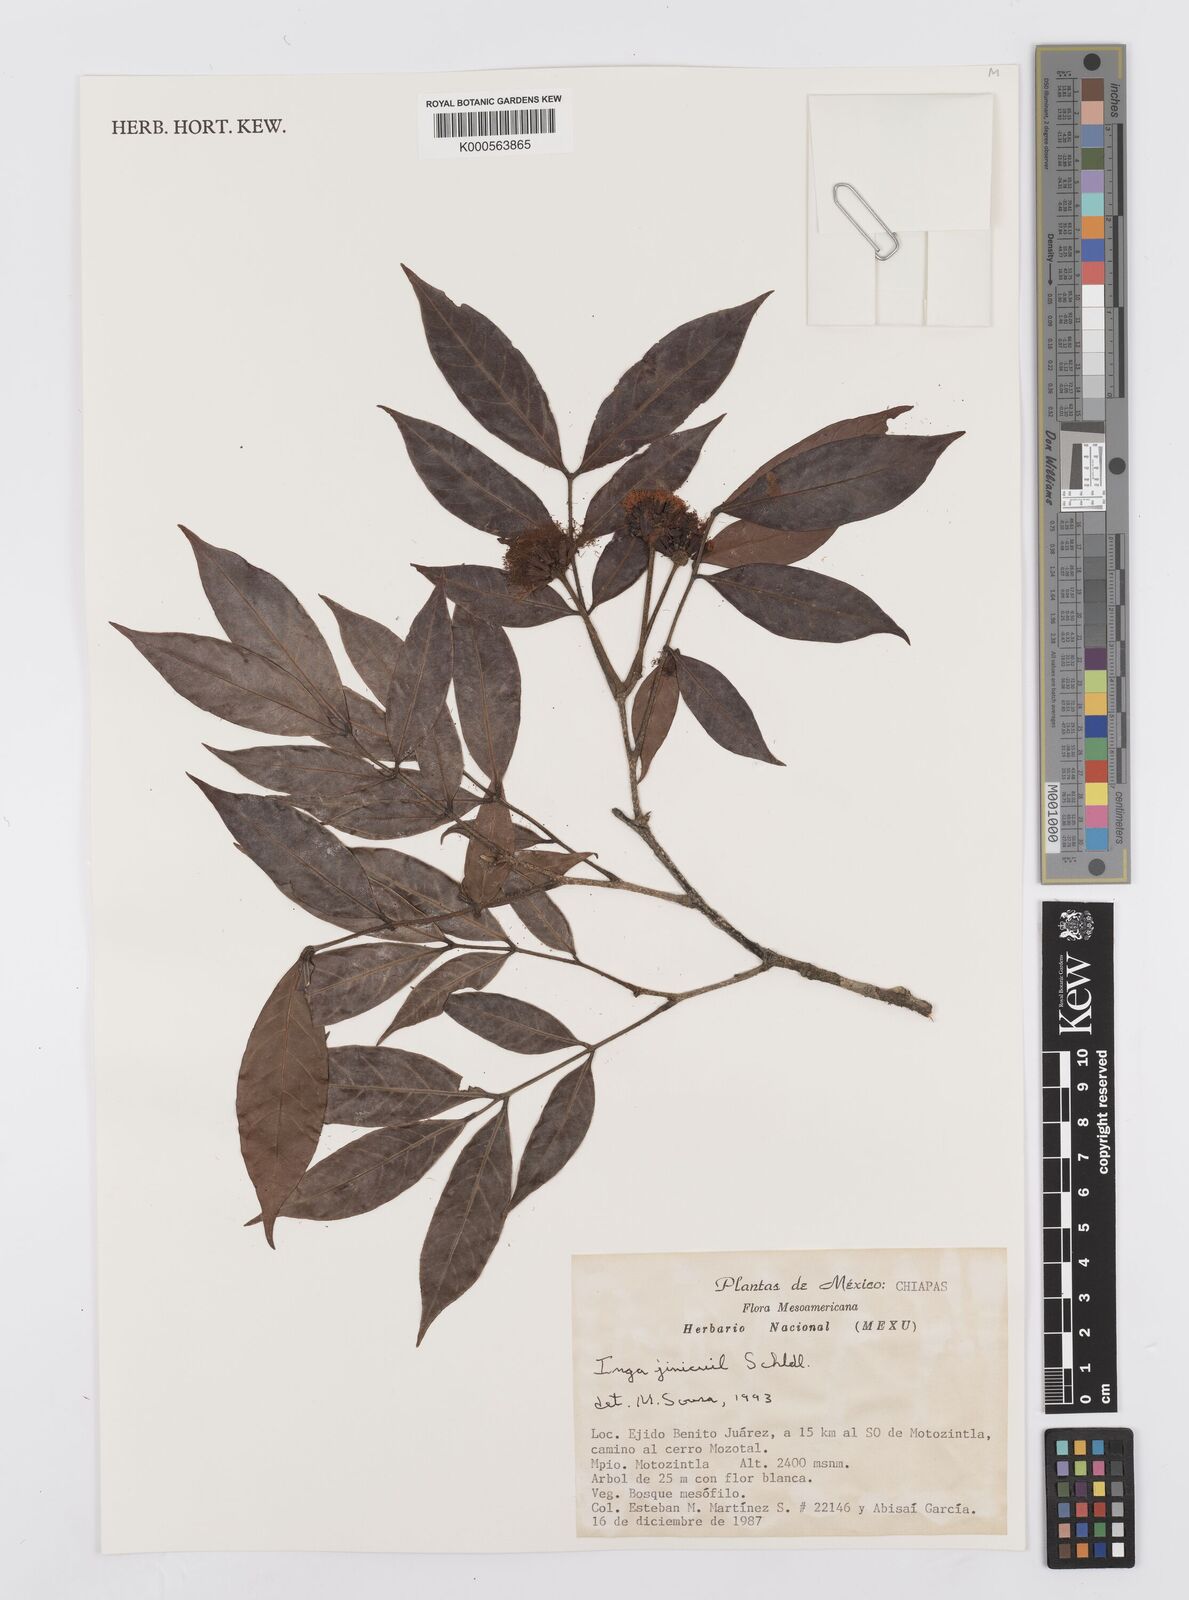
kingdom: Plantae
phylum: Tracheophyta
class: Magnoliopsida
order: Fabales
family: Fabaceae
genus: Inga
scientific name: Inga inicuil
